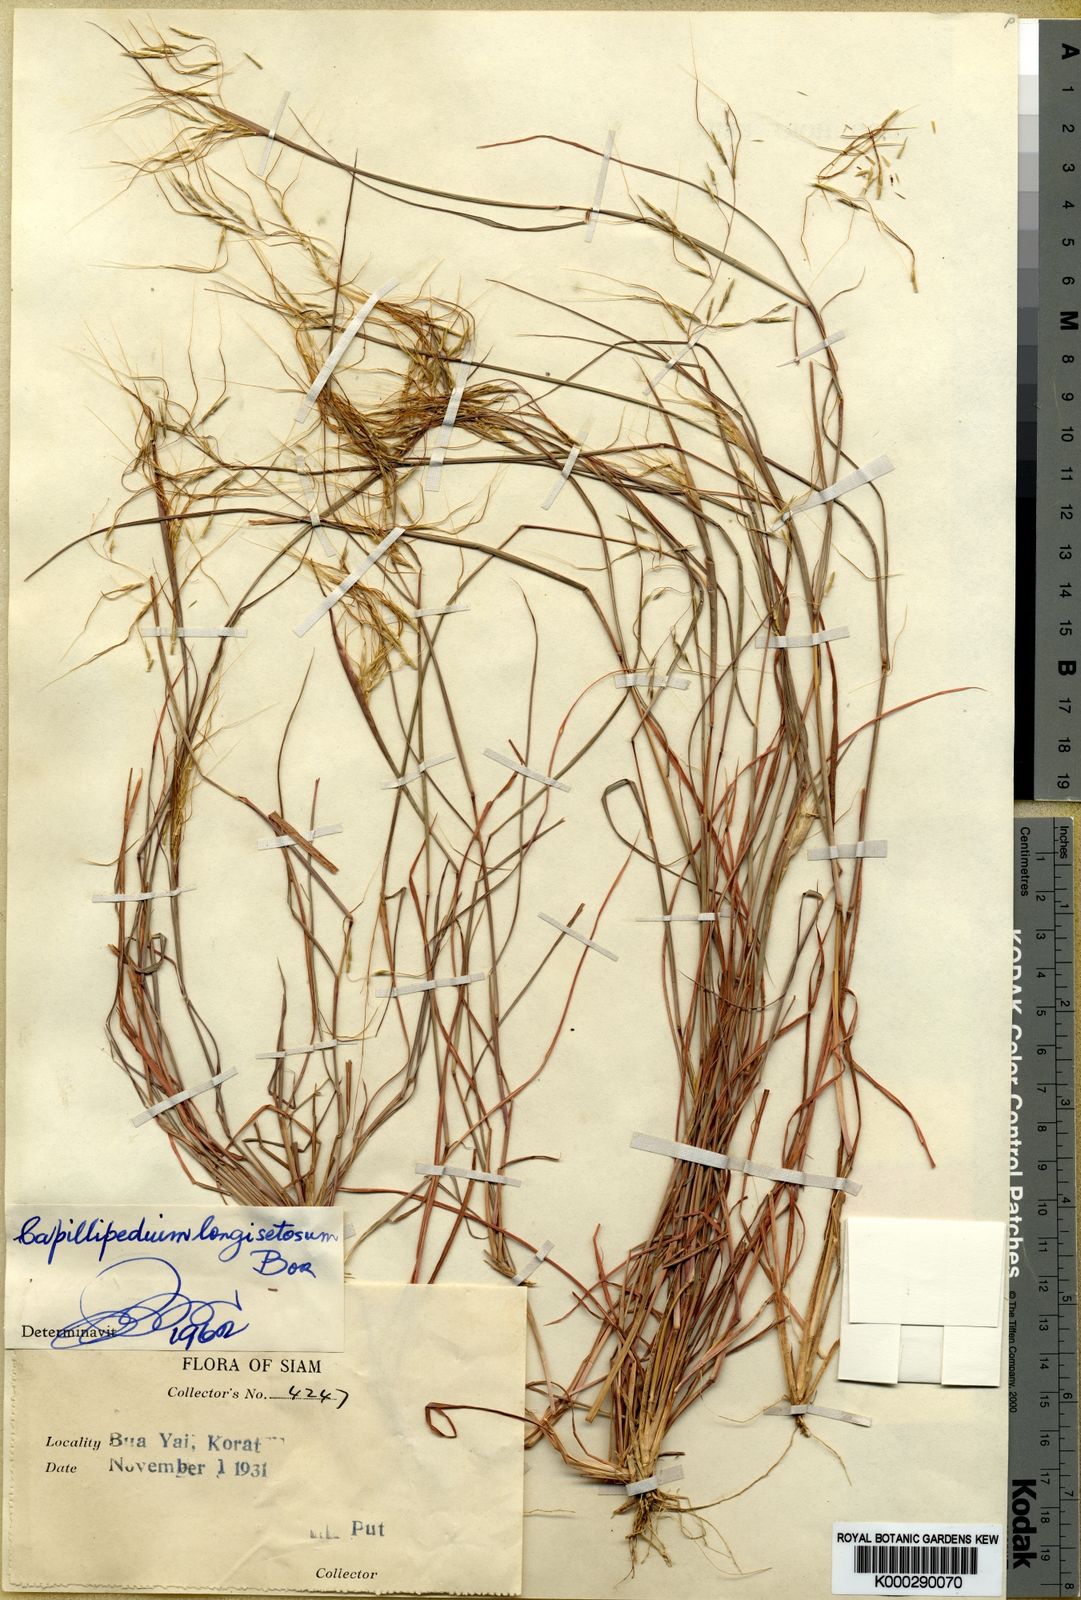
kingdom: Plantae
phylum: Tracheophyta
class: Liliopsida
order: Poales
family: Poaceae
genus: Capillipedium
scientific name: Capillipedium longisetosum
